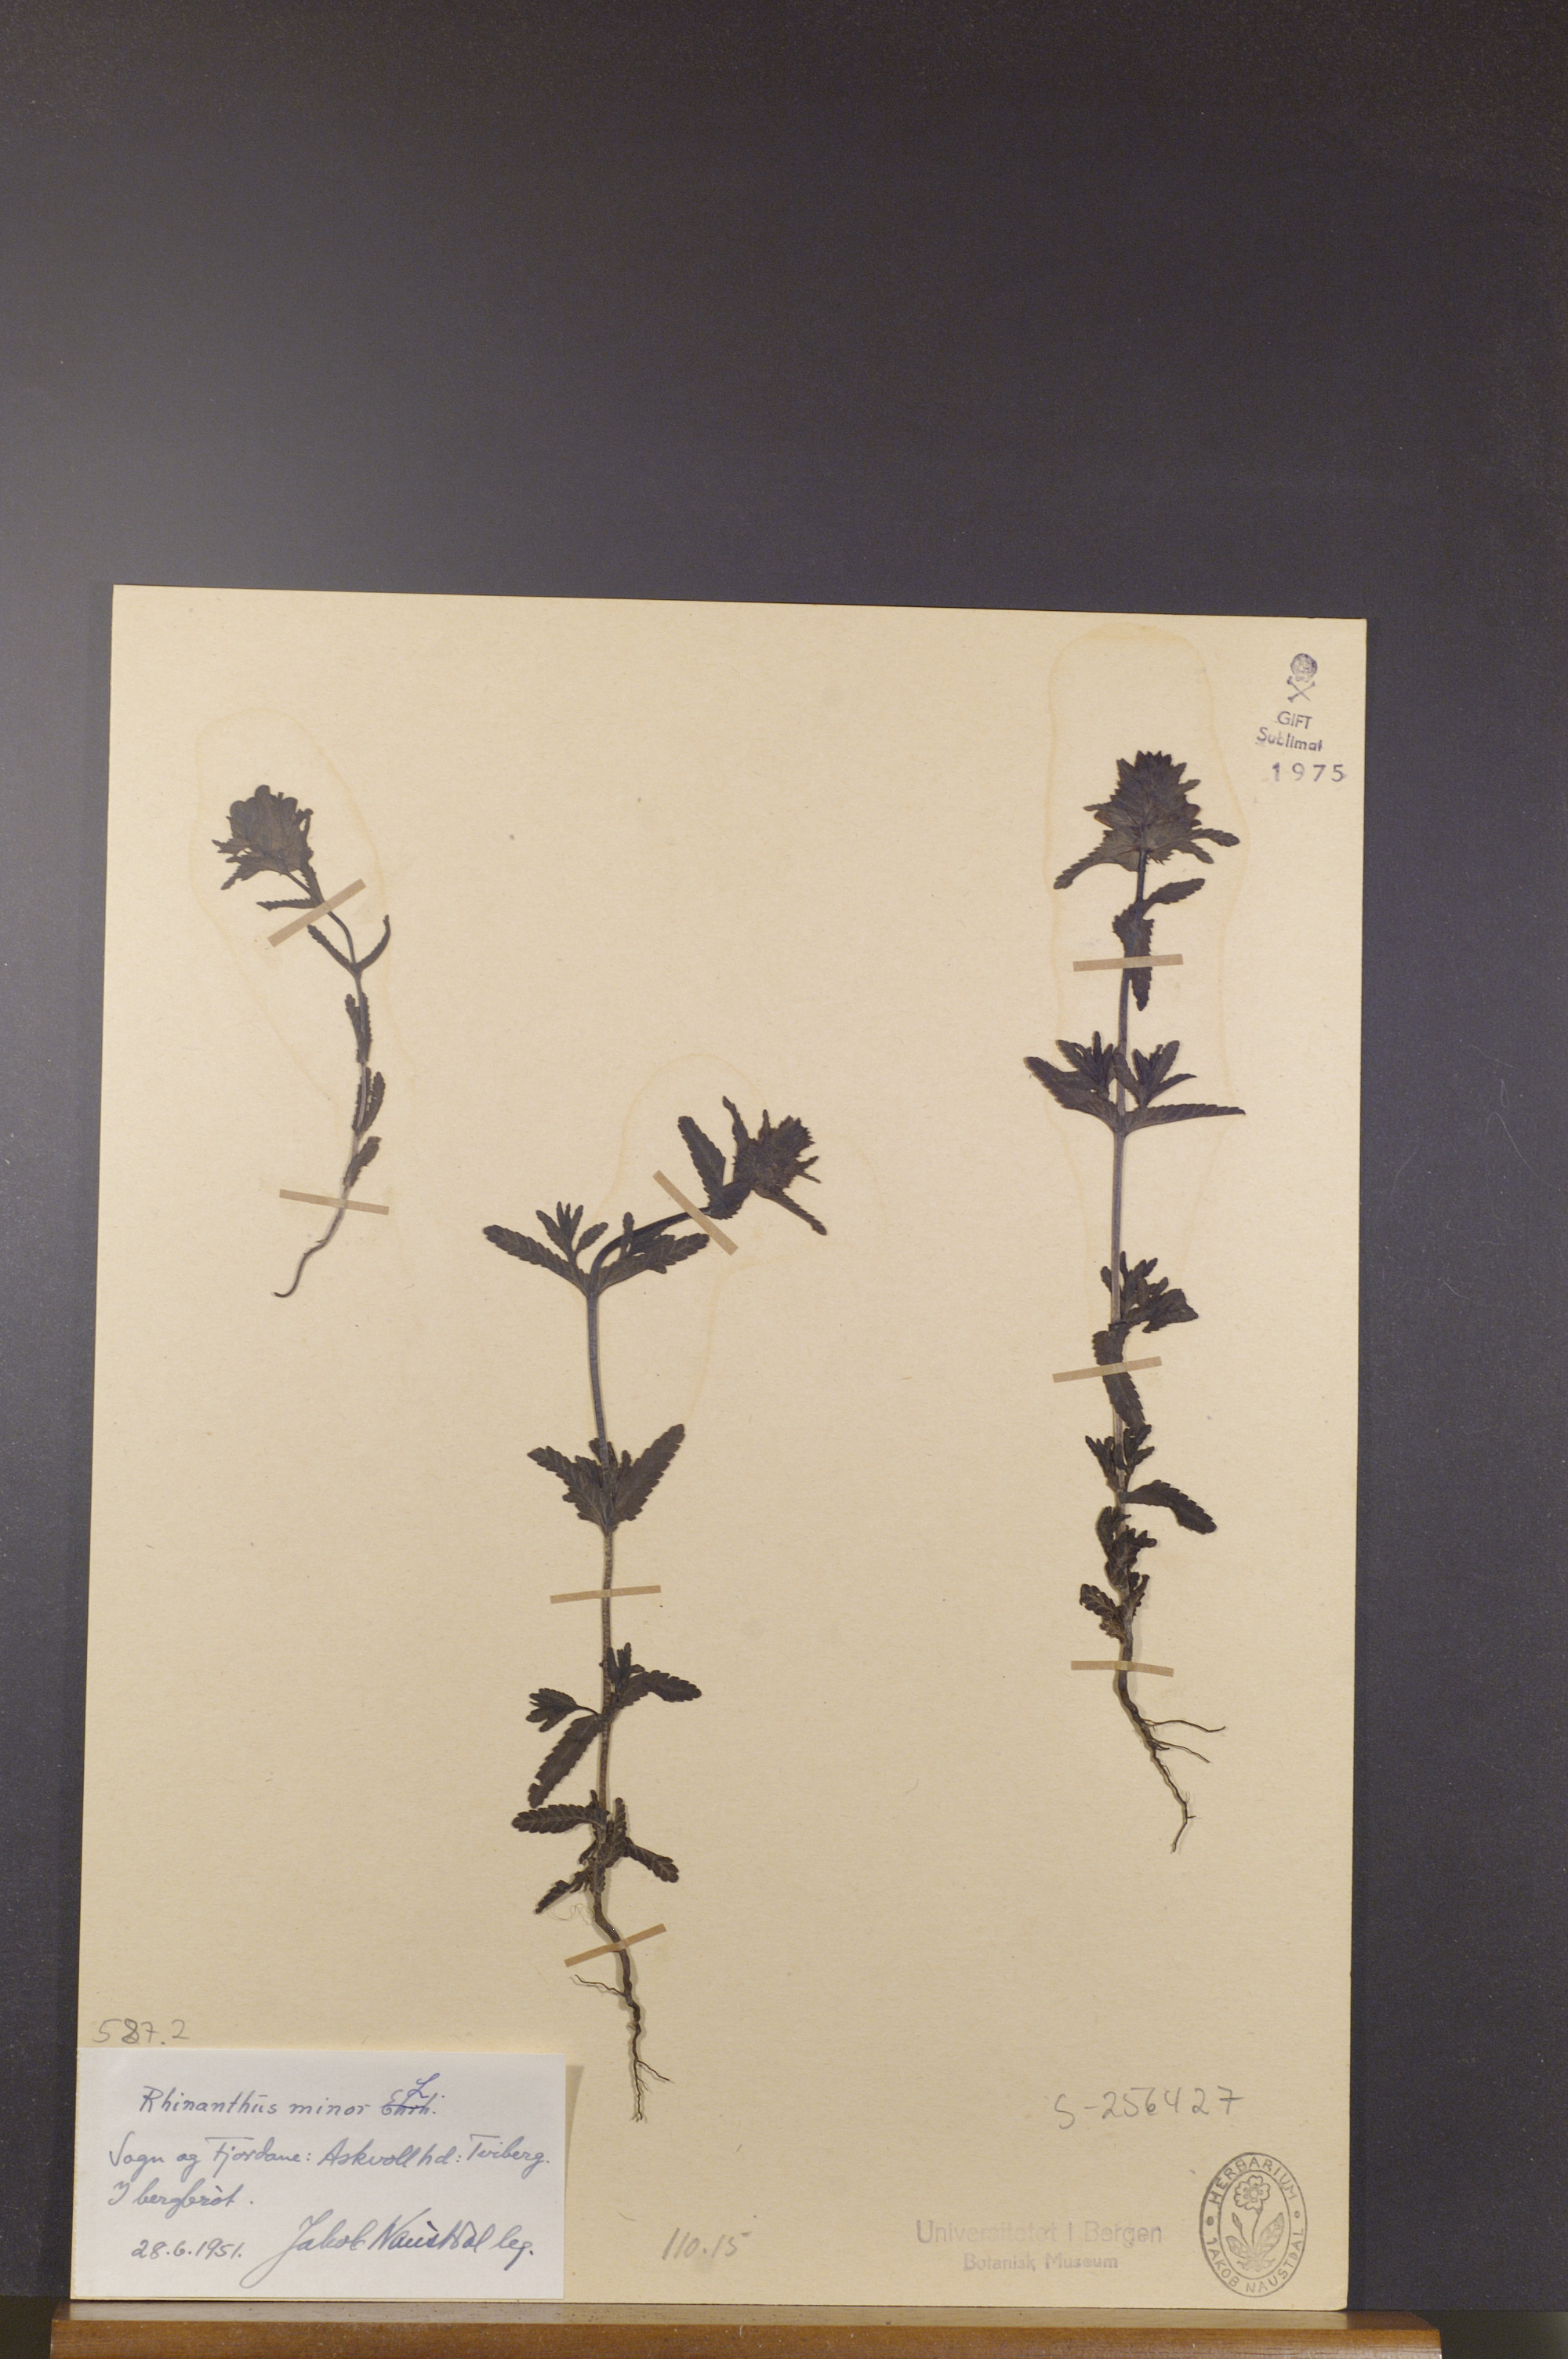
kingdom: Plantae
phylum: Tracheophyta
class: Magnoliopsida
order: Lamiales
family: Orobanchaceae
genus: Rhinanthus
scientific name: Rhinanthus minor
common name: Yellow-rattle
